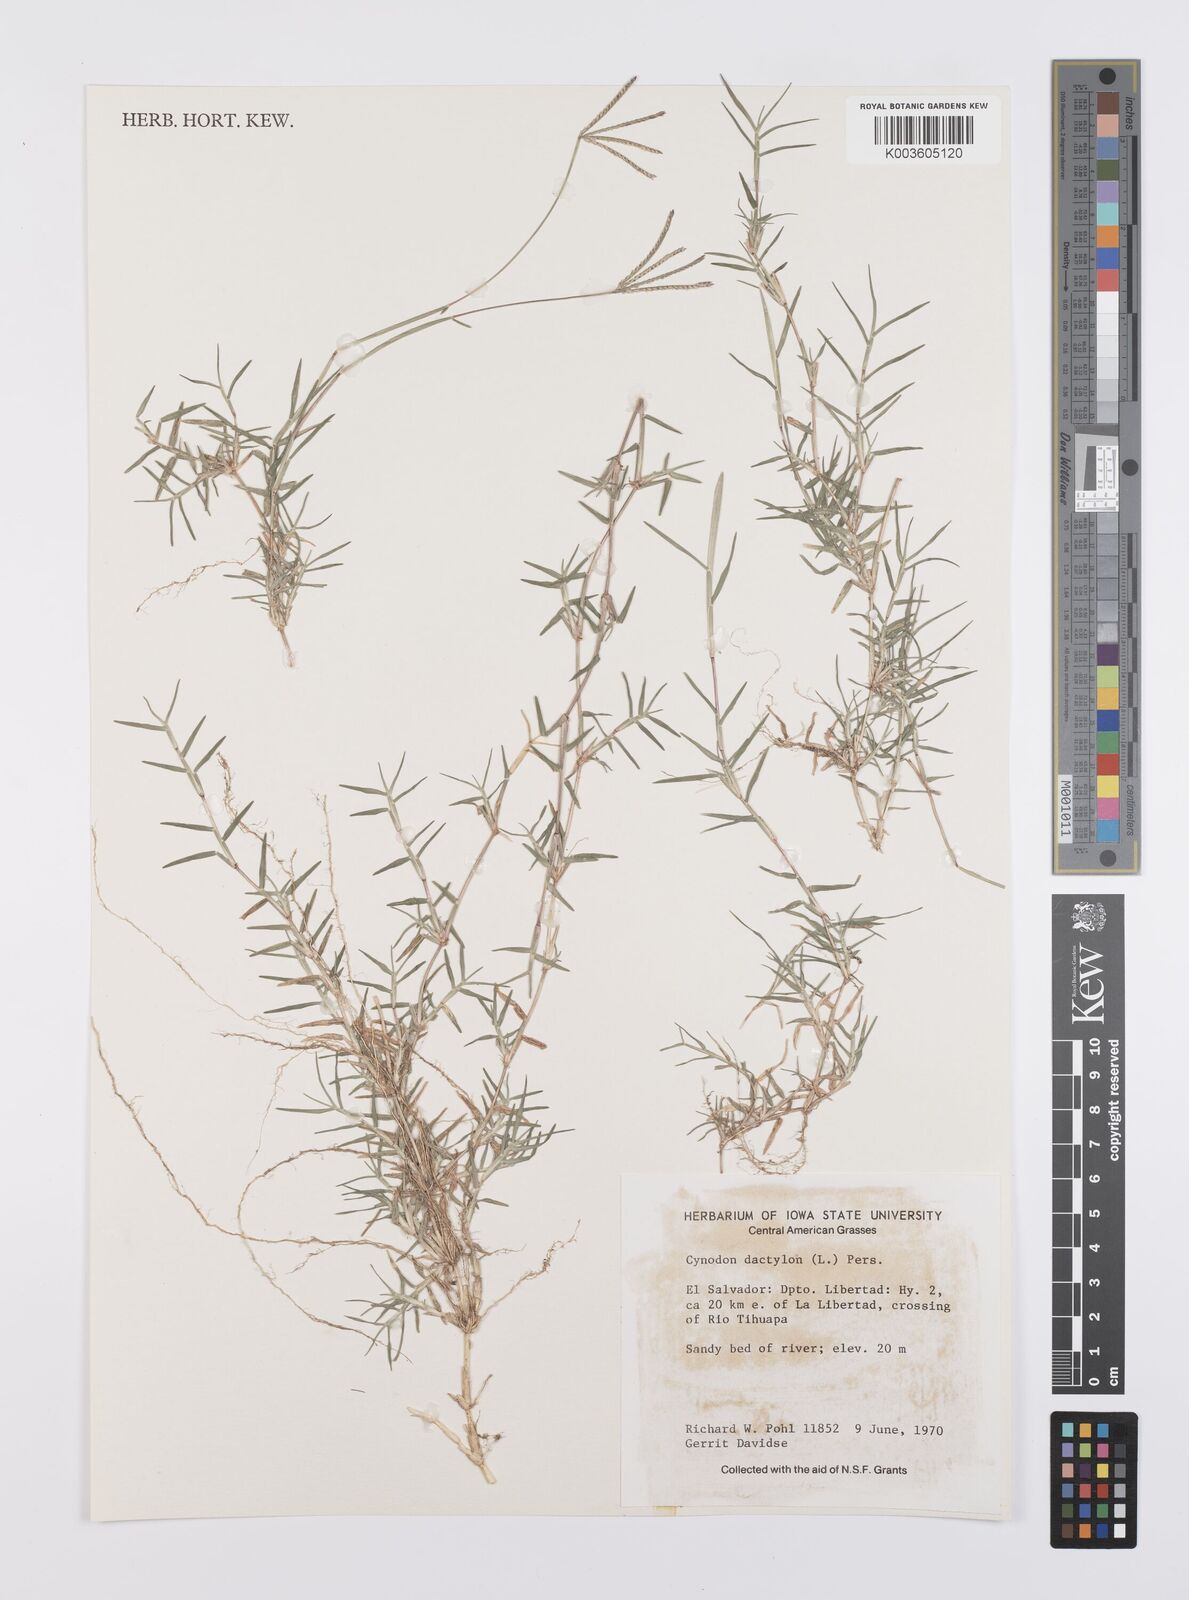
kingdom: Plantae
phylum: Tracheophyta
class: Liliopsida
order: Poales
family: Poaceae
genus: Cynodon
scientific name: Cynodon dactylon
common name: Bermuda grass
